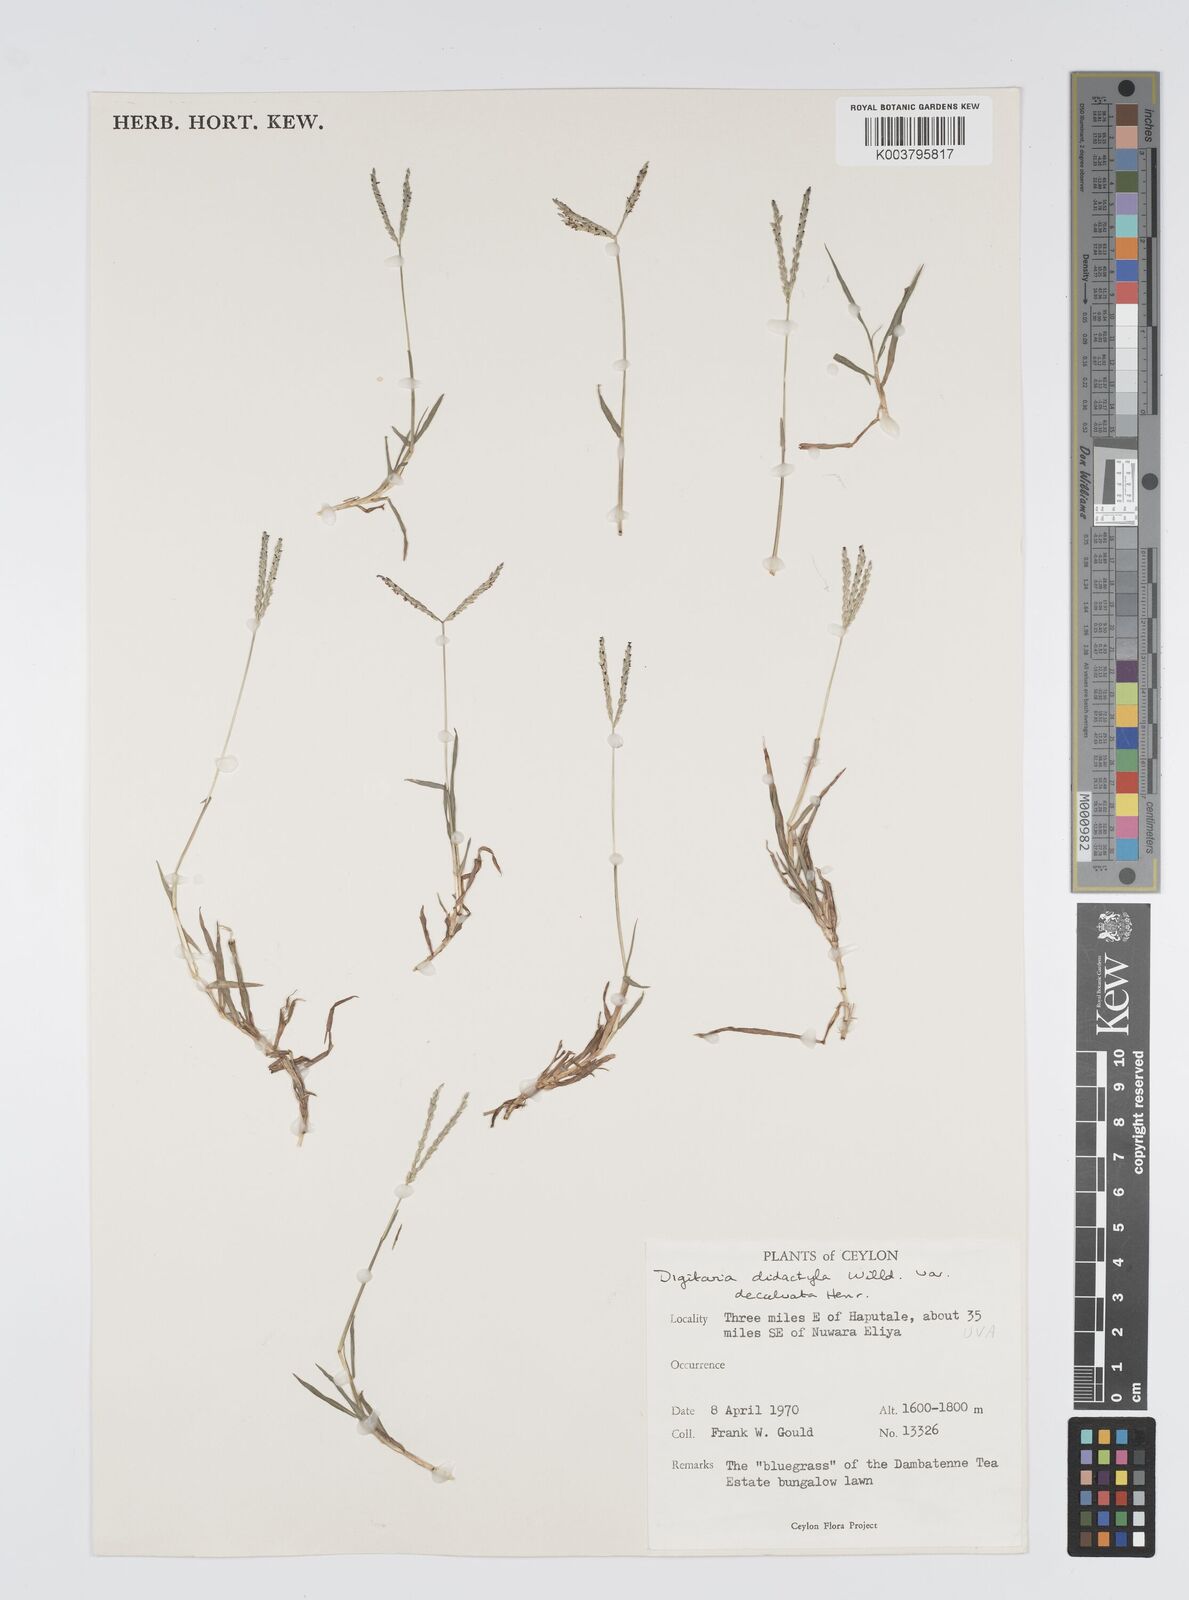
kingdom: Plantae
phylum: Tracheophyta
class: Liliopsida
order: Poales
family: Poaceae
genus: Digitaria
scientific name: Digitaria didactyla
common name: Blue couch
